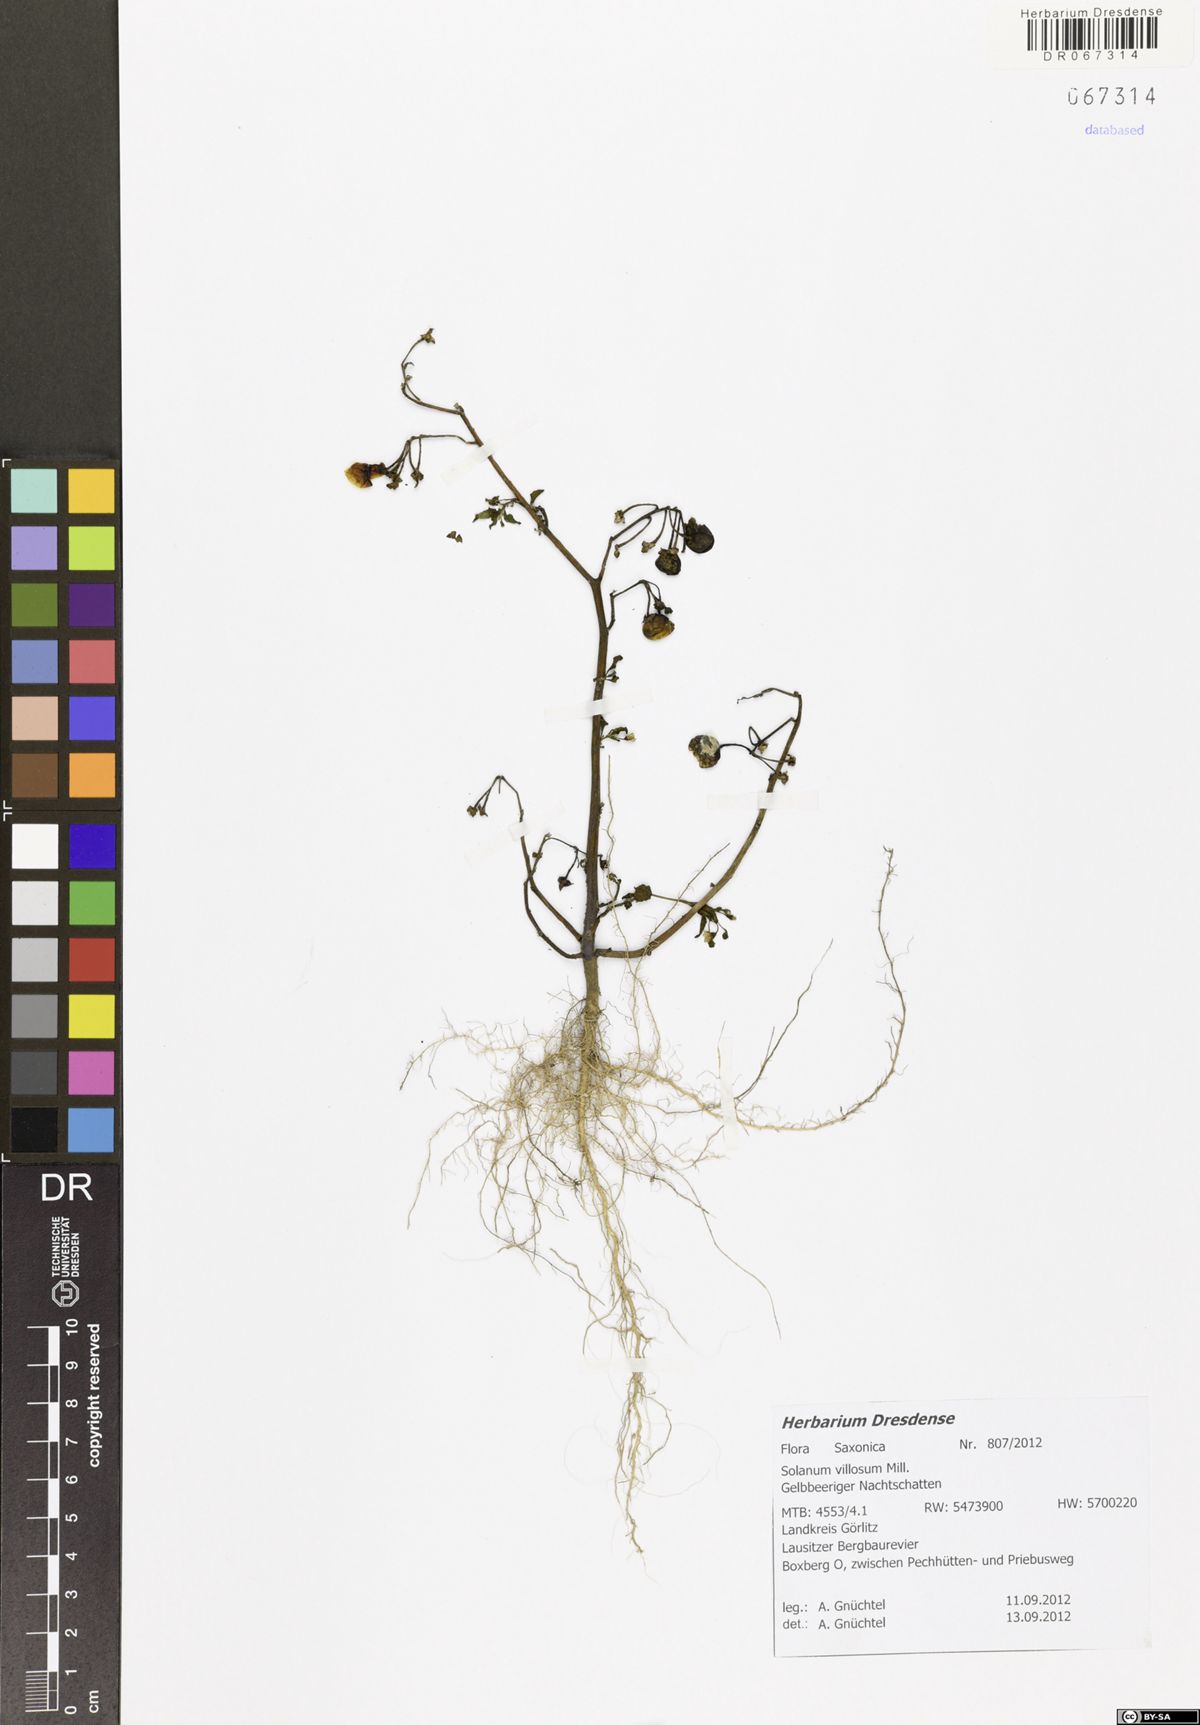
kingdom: Plantae
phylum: Tracheophyta
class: Magnoliopsida
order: Solanales
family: Solanaceae
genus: Solanum
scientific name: Solanum villosum
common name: Red nightshade
